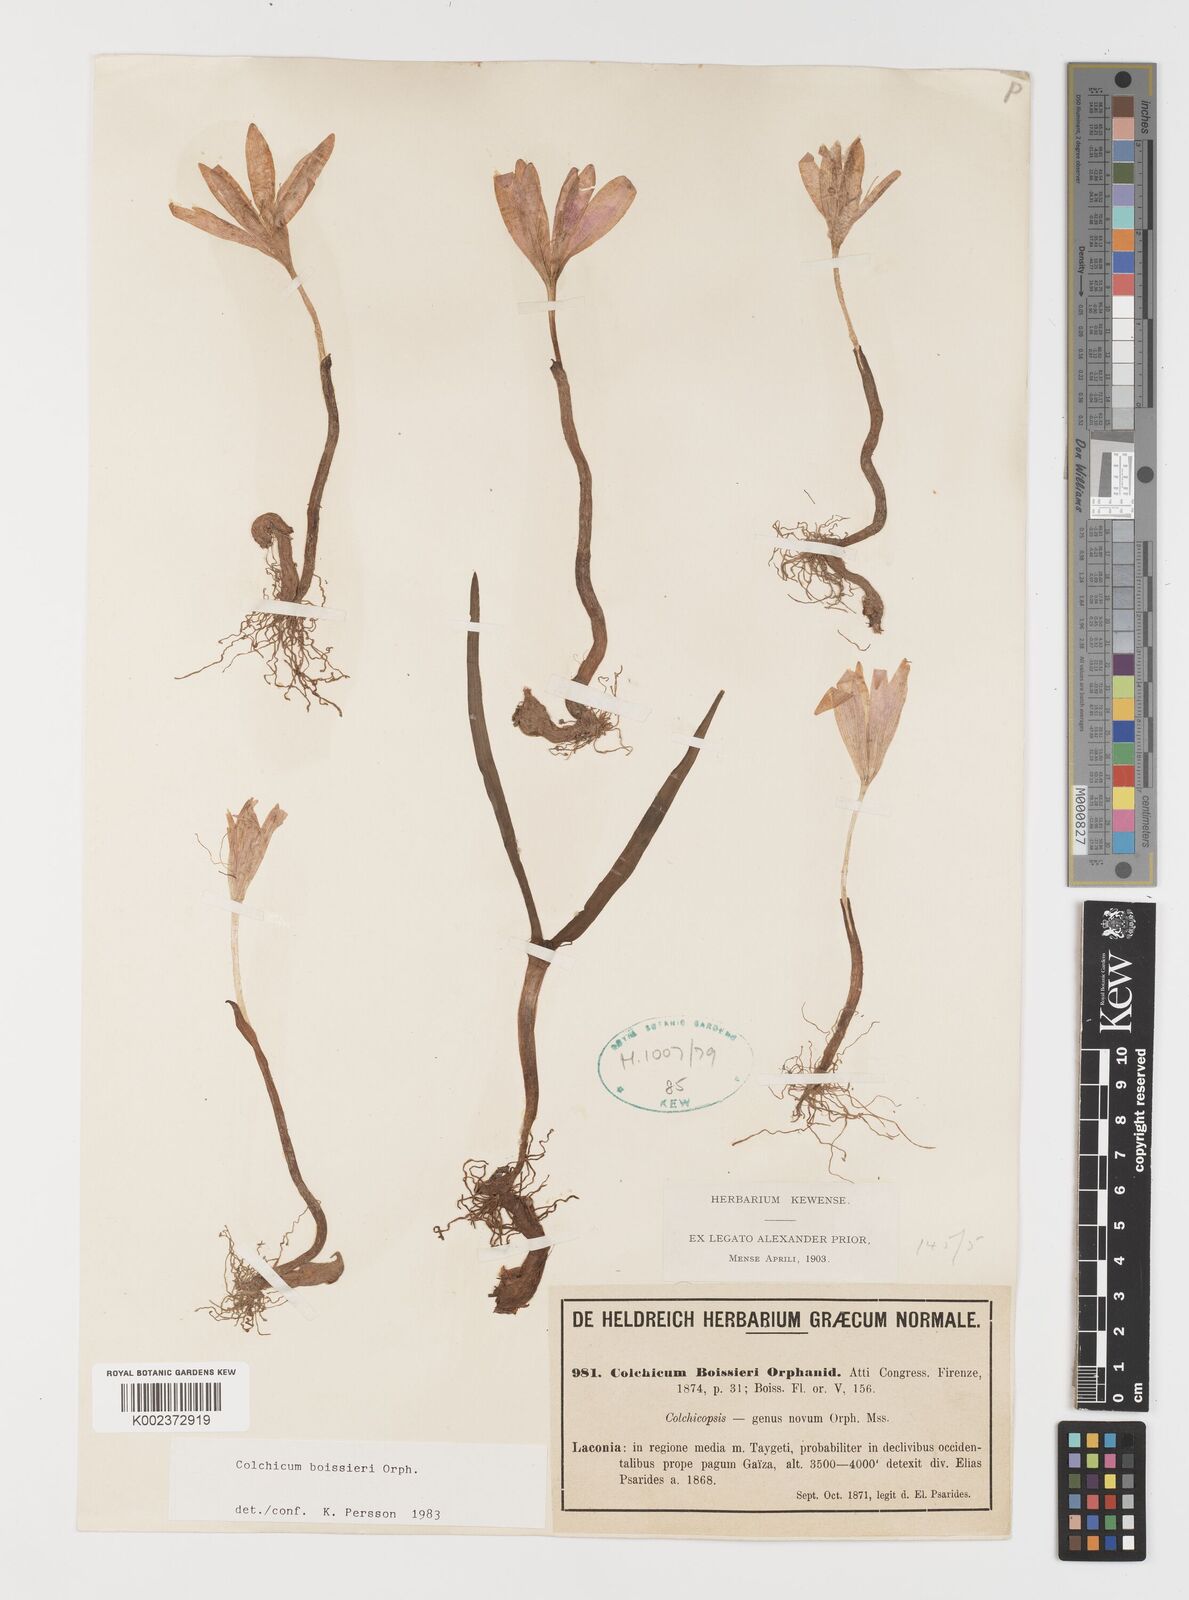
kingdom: Plantae
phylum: Tracheophyta
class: Liliopsida
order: Liliales
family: Colchicaceae
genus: Colchicum
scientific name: Colchicum boissieri
